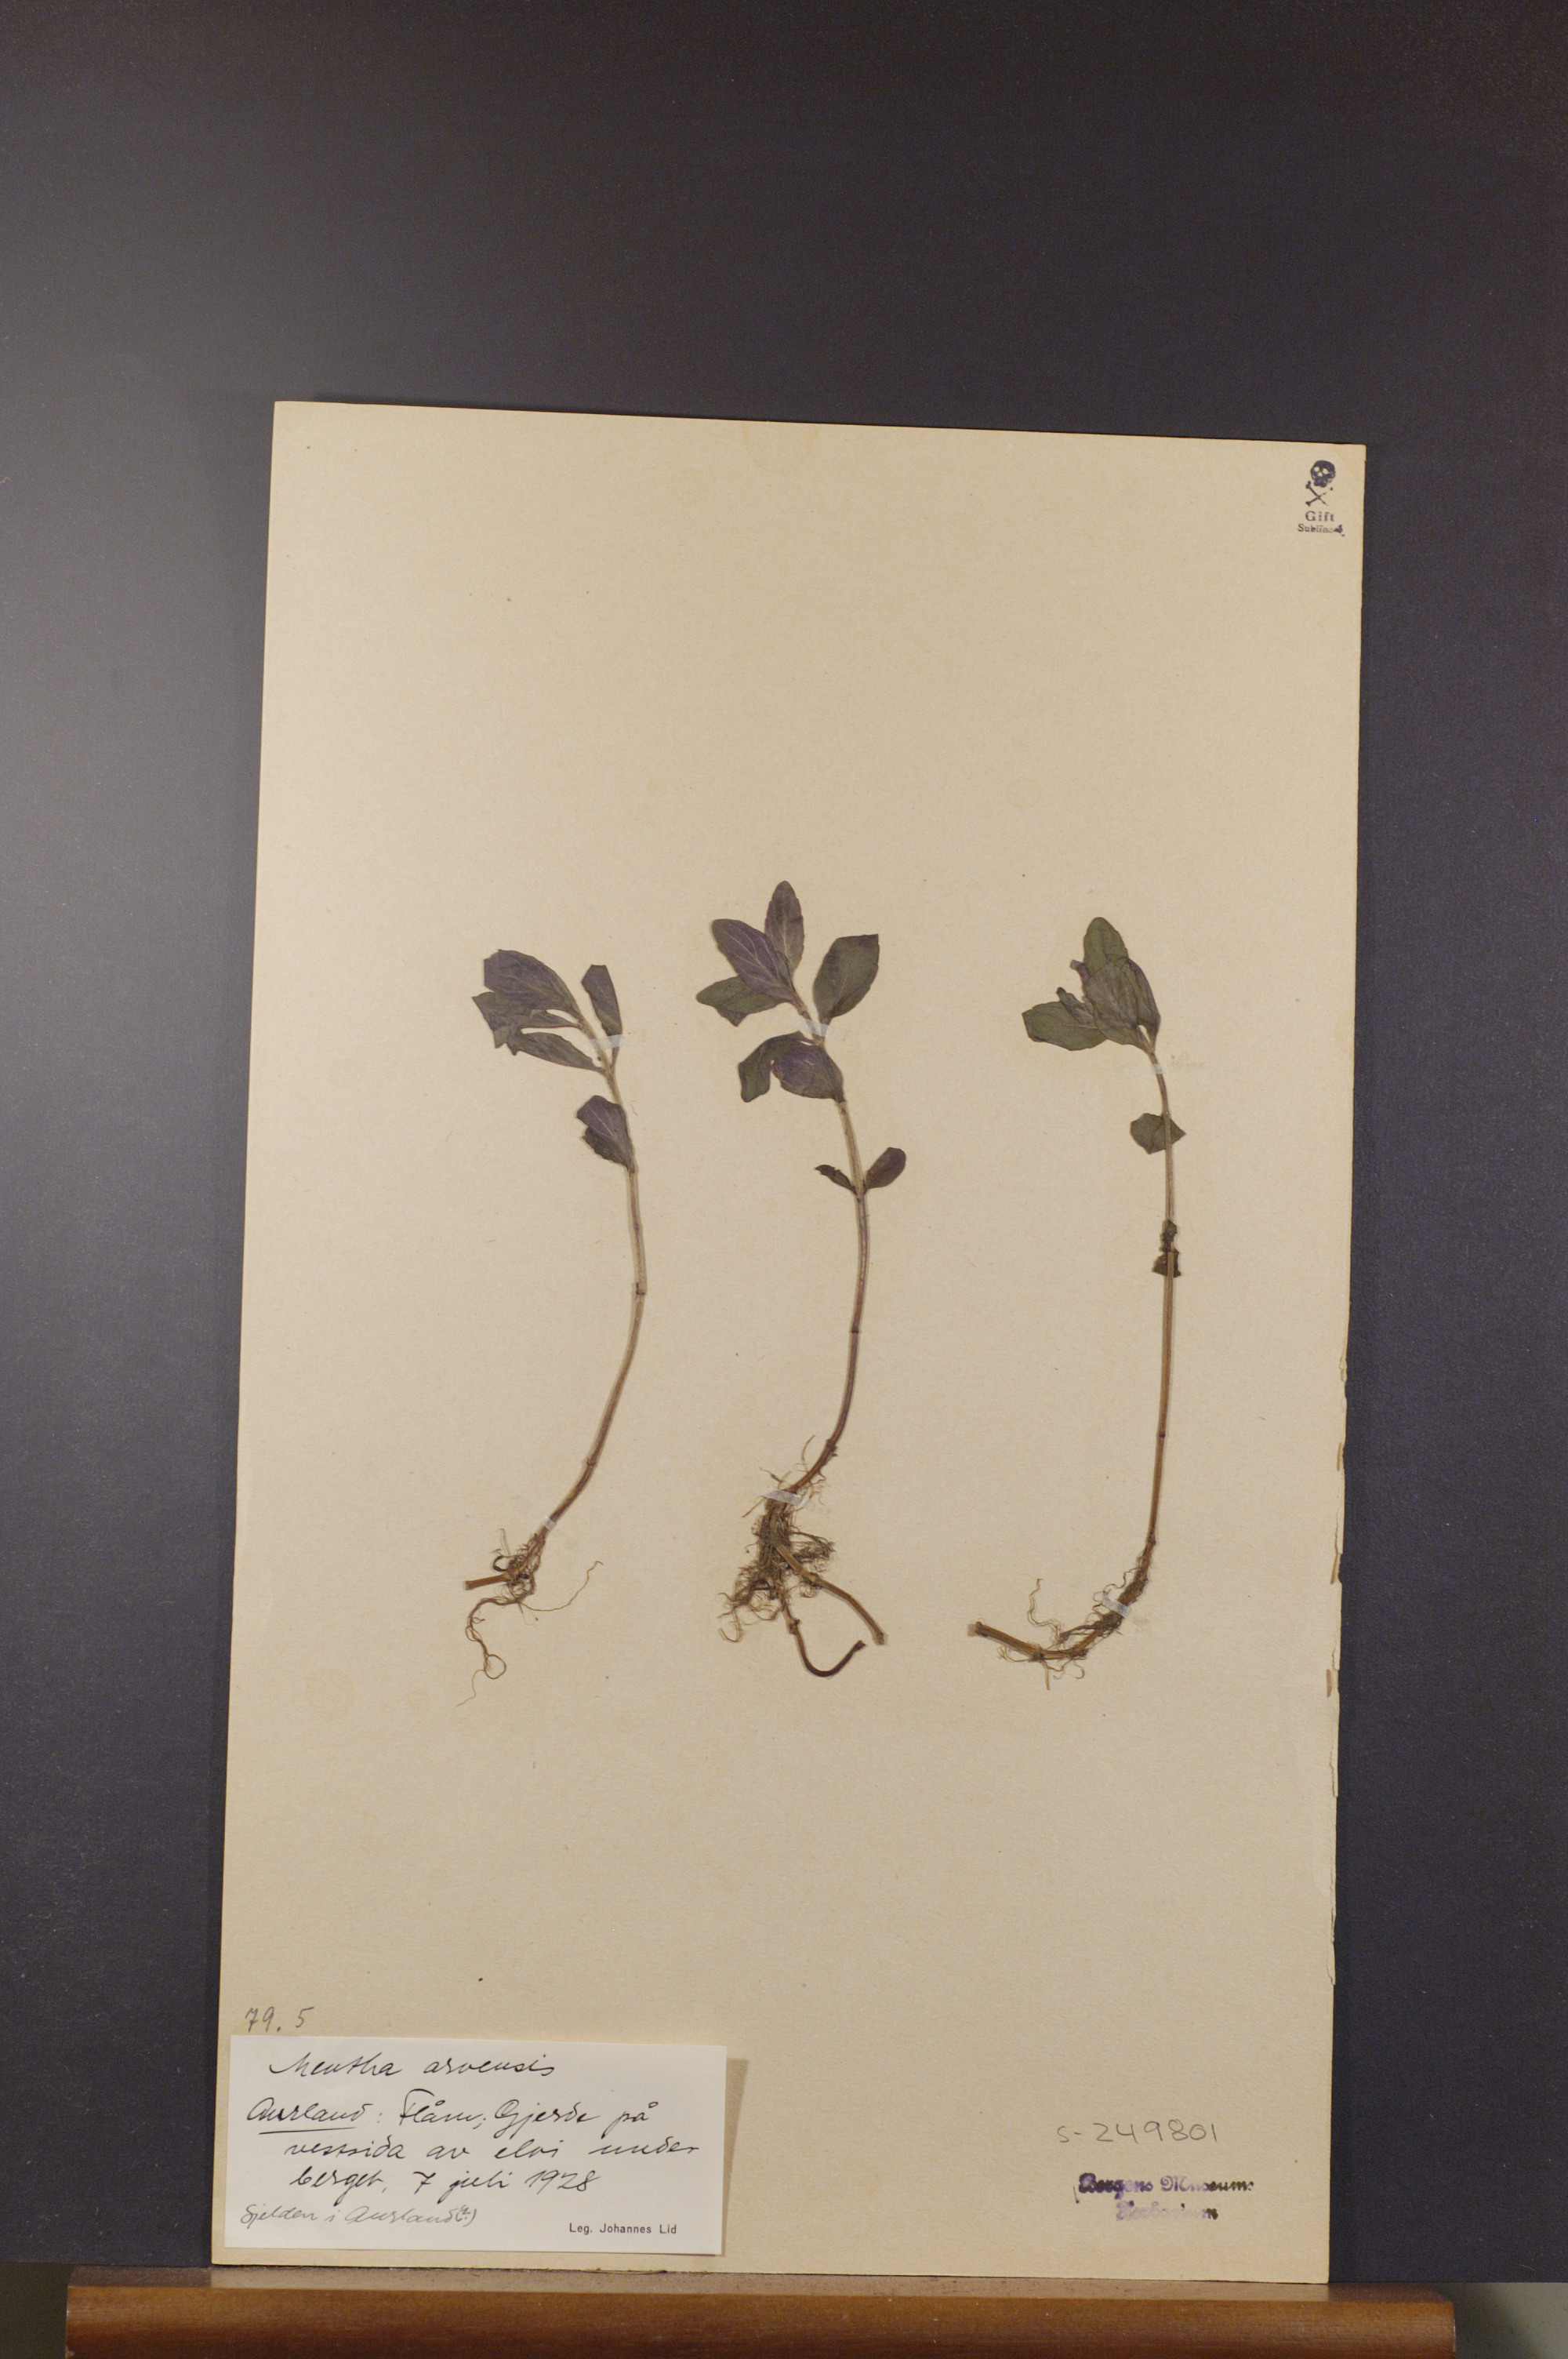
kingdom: Plantae
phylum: Tracheophyta
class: Magnoliopsida
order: Lamiales
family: Lamiaceae
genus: Mentha
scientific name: Mentha arvensis
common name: Corn mint
